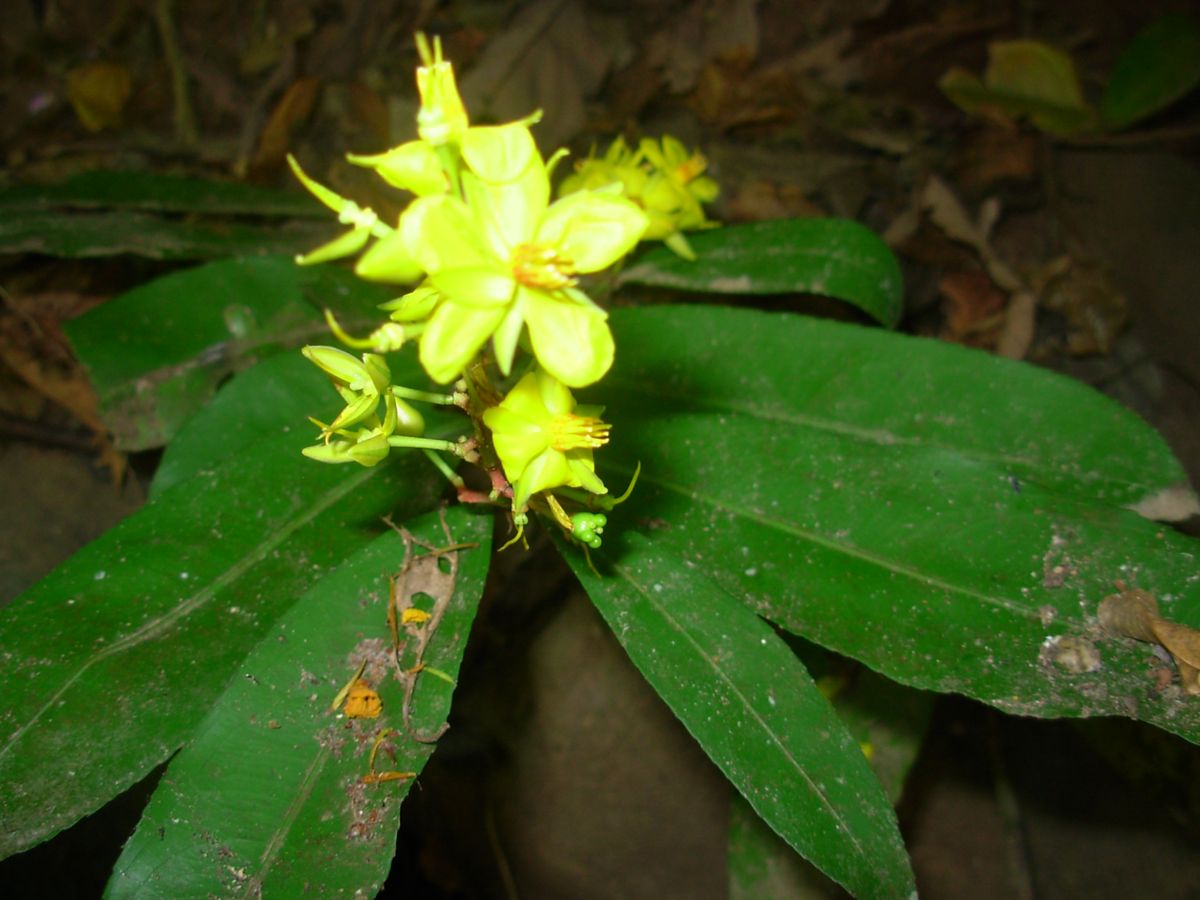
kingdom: Plantae
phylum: Tracheophyta
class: Magnoliopsida
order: Malpighiales
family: Ochnaceae
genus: Ouratea
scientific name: Ouratea lucens
